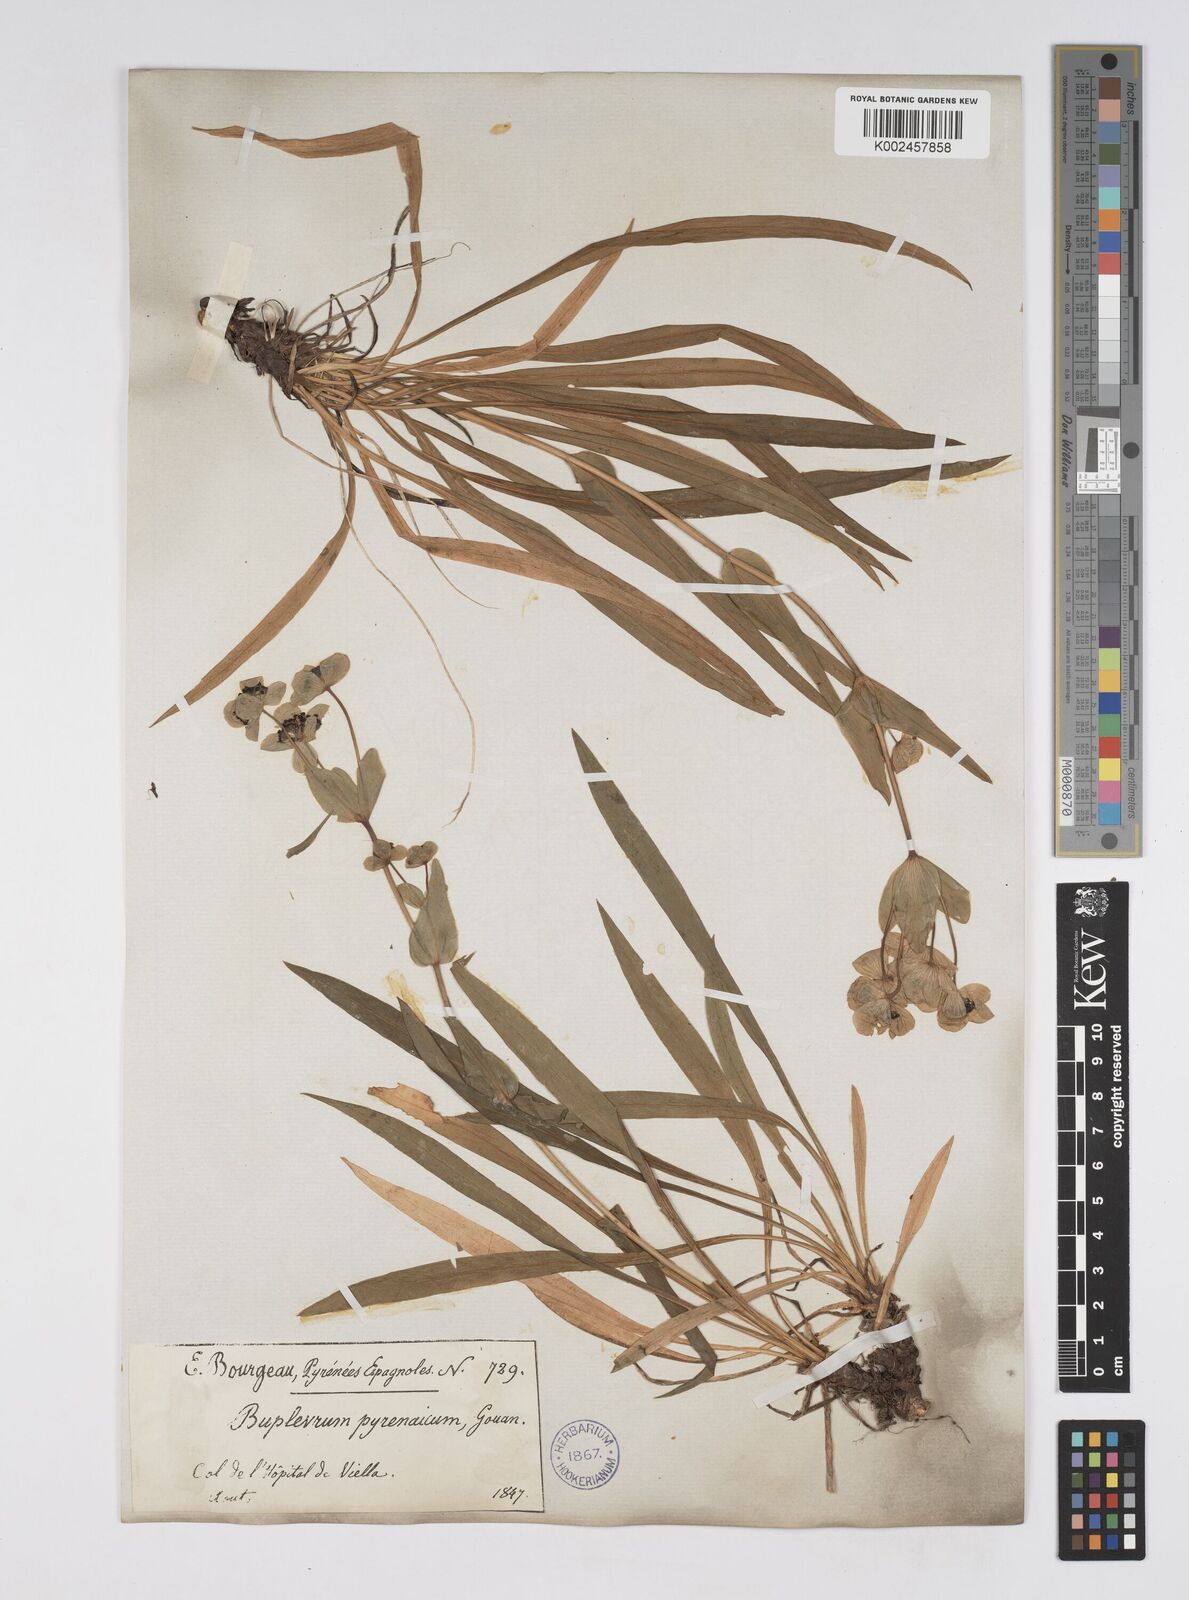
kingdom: Plantae
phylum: Tracheophyta
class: Magnoliopsida
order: Apiales
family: Apiaceae
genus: Bupleurum
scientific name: Bupleurum angulosum
